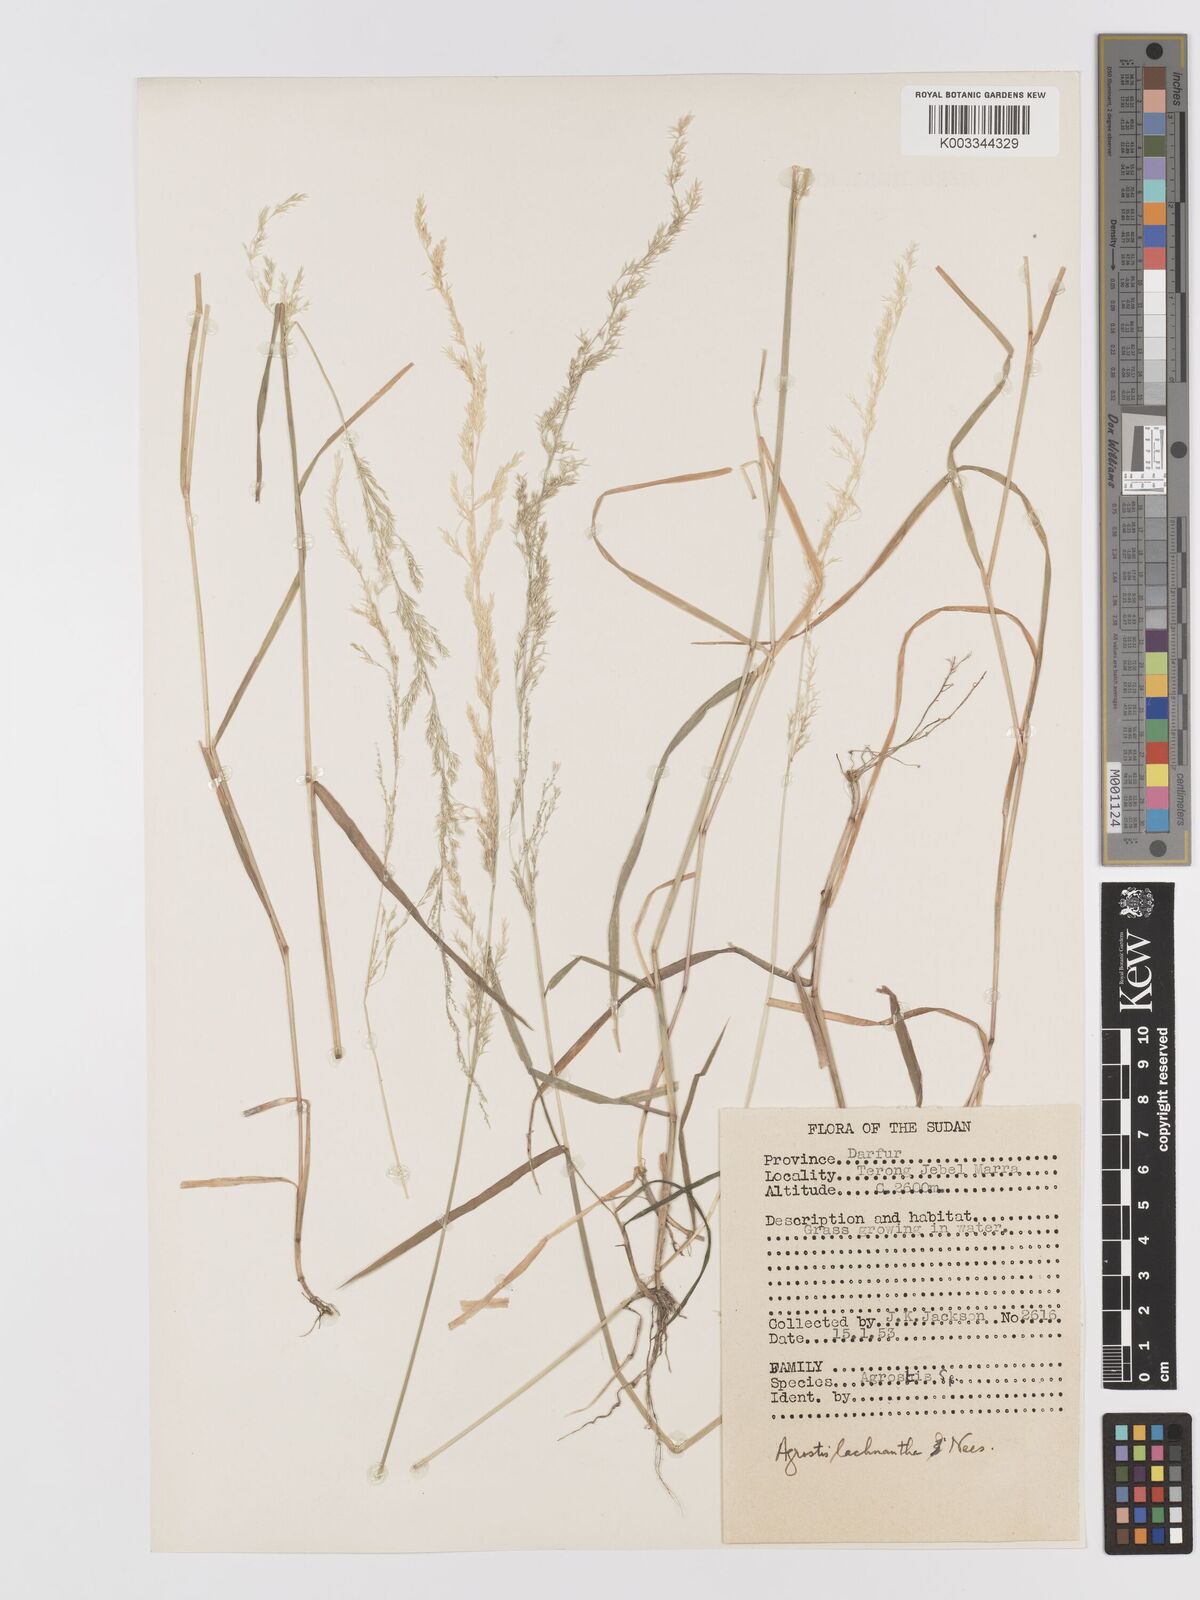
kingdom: Plantae
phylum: Tracheophyta
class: Liliopsida
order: Poales
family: Poaceae
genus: Lachnagrostis
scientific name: Lachnagrostis lachnantha
